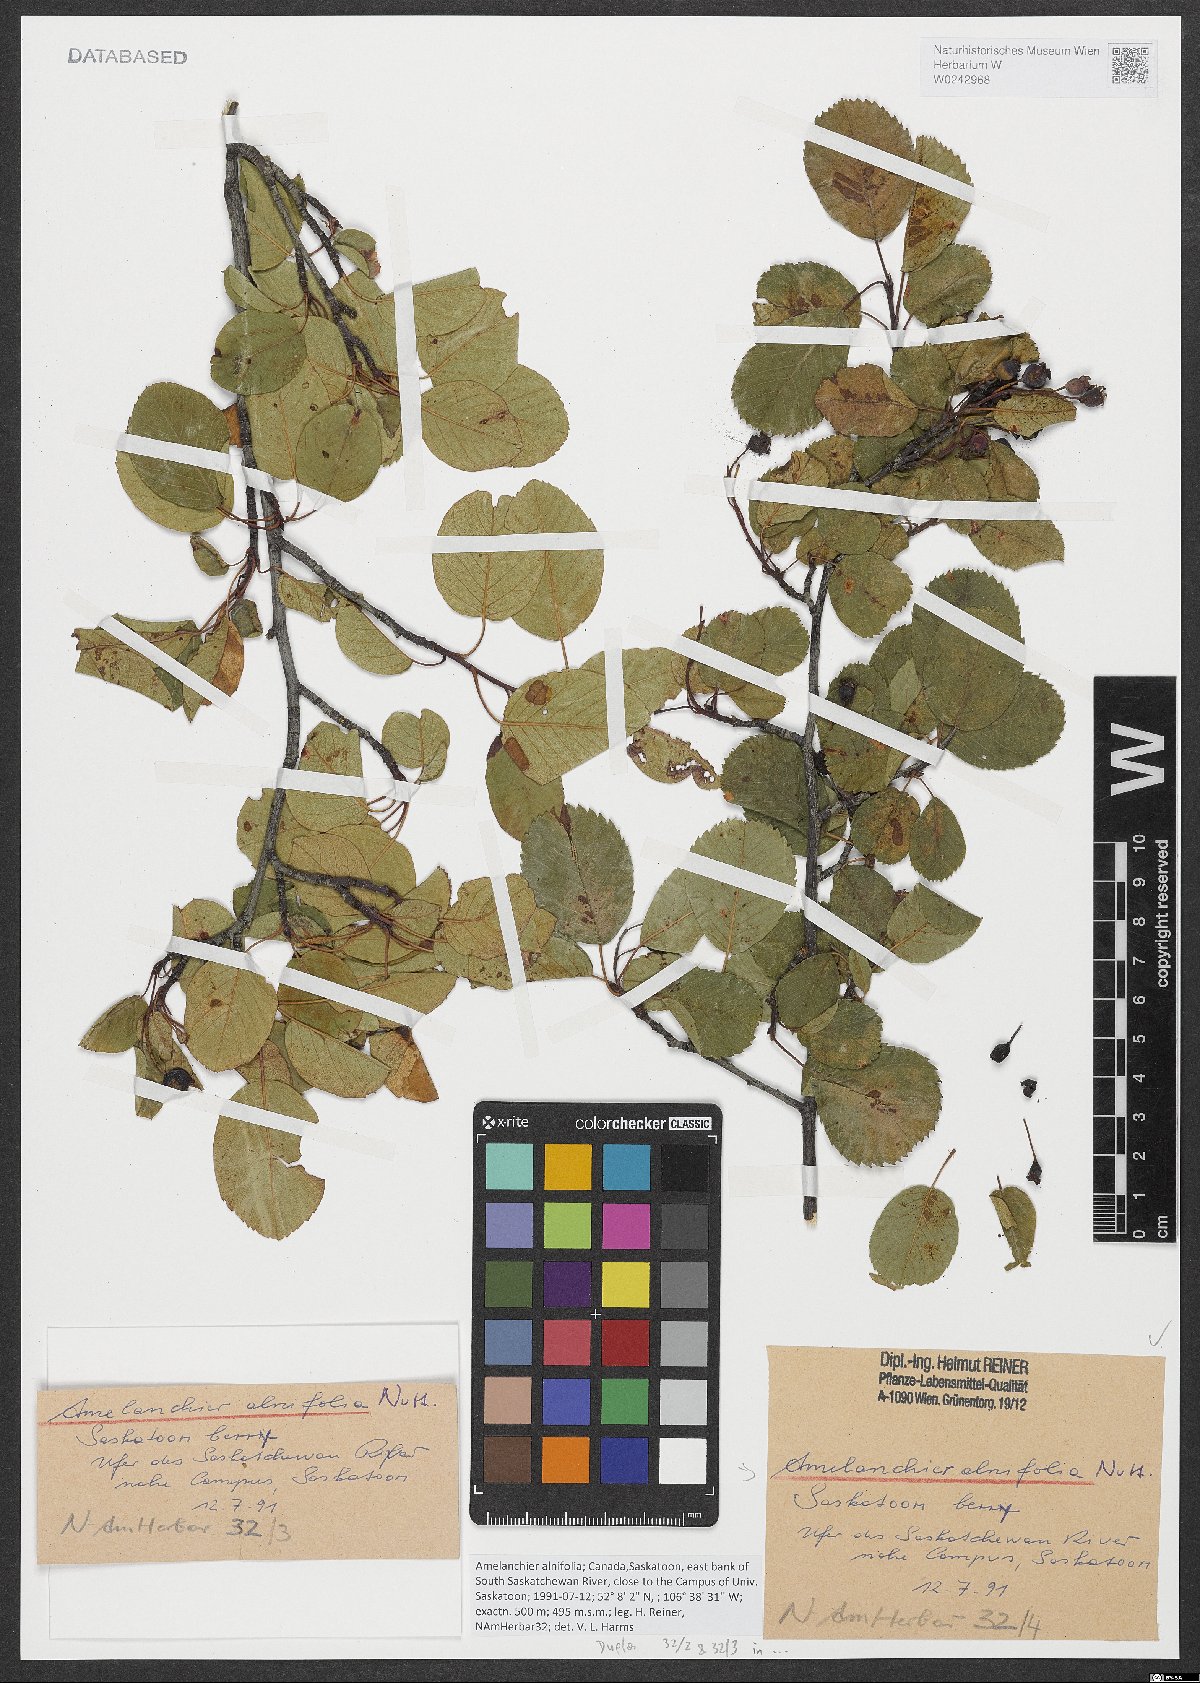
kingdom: Plantae
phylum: Tracheophyta
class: Magnoliopsida
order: Rosales
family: Rosaceae
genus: Amelanchier
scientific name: Amelanchier alnifolia
